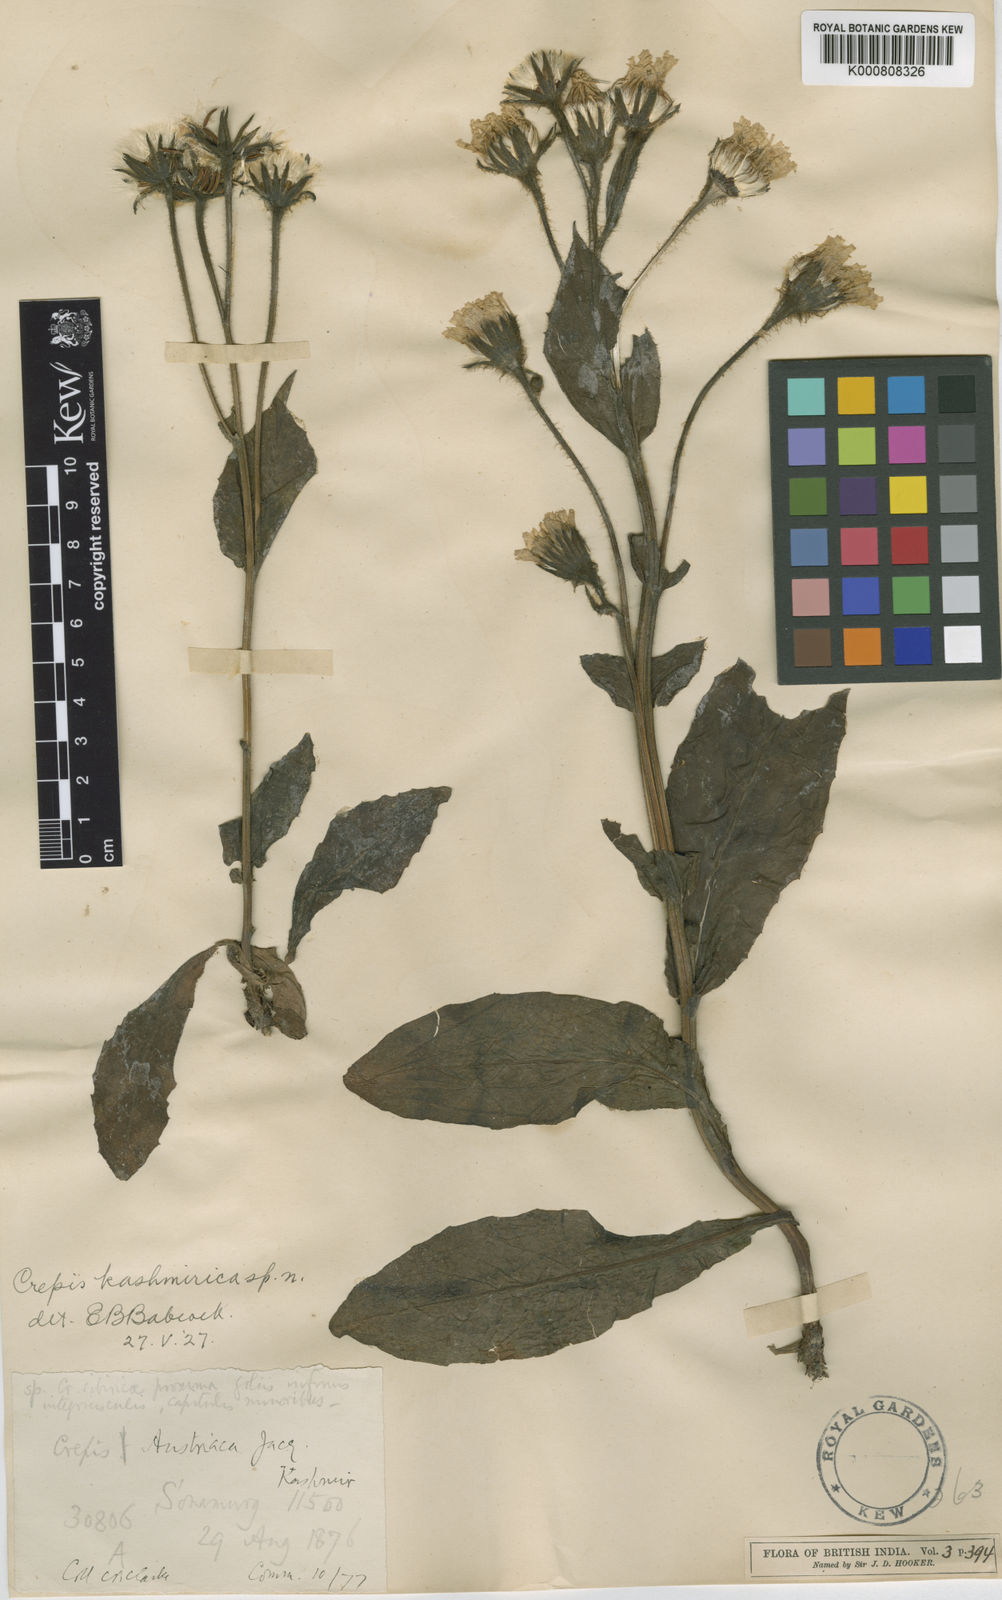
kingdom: Plantae
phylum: Tracheophyta
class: Magnoliopsida
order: Asterales
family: Asteraceae
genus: Crepis
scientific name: Crepis kashmirica
